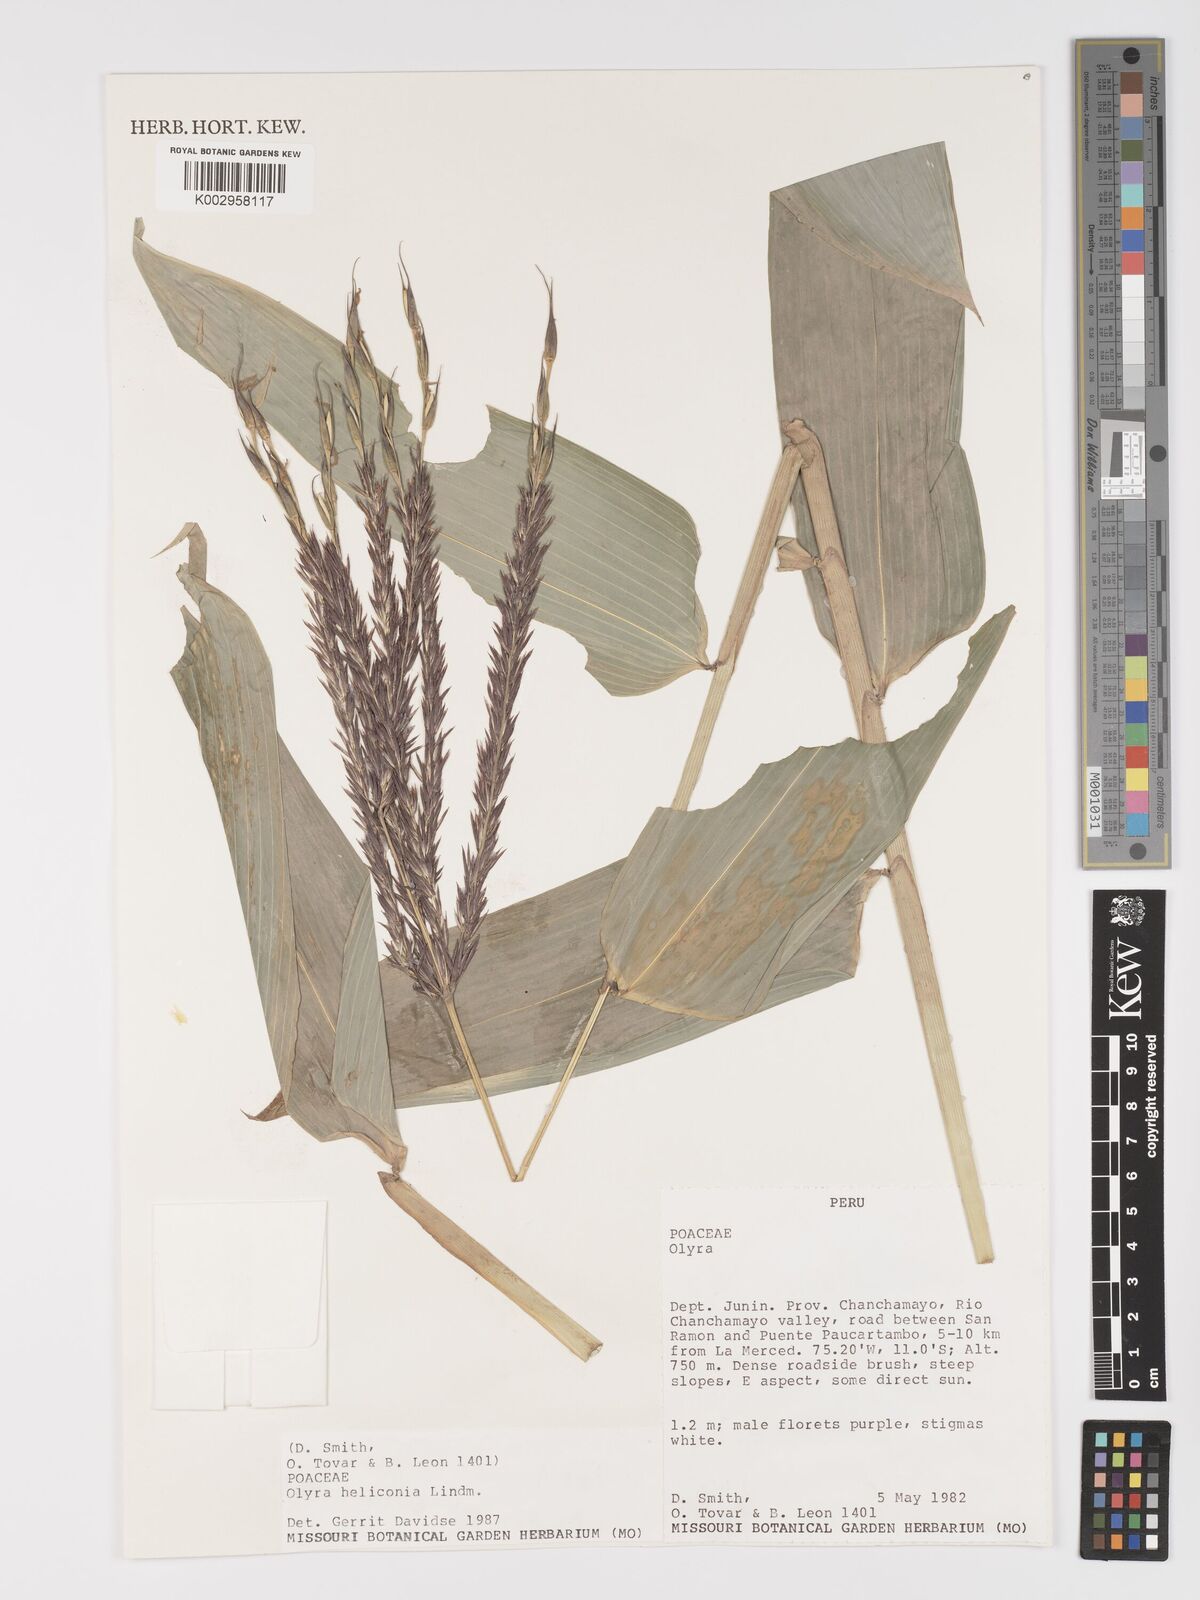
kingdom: Plantae
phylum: Tracheophyta
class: Liliopsida
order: Poales
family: Poaceae
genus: Olyra
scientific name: Olyra fasciculata
